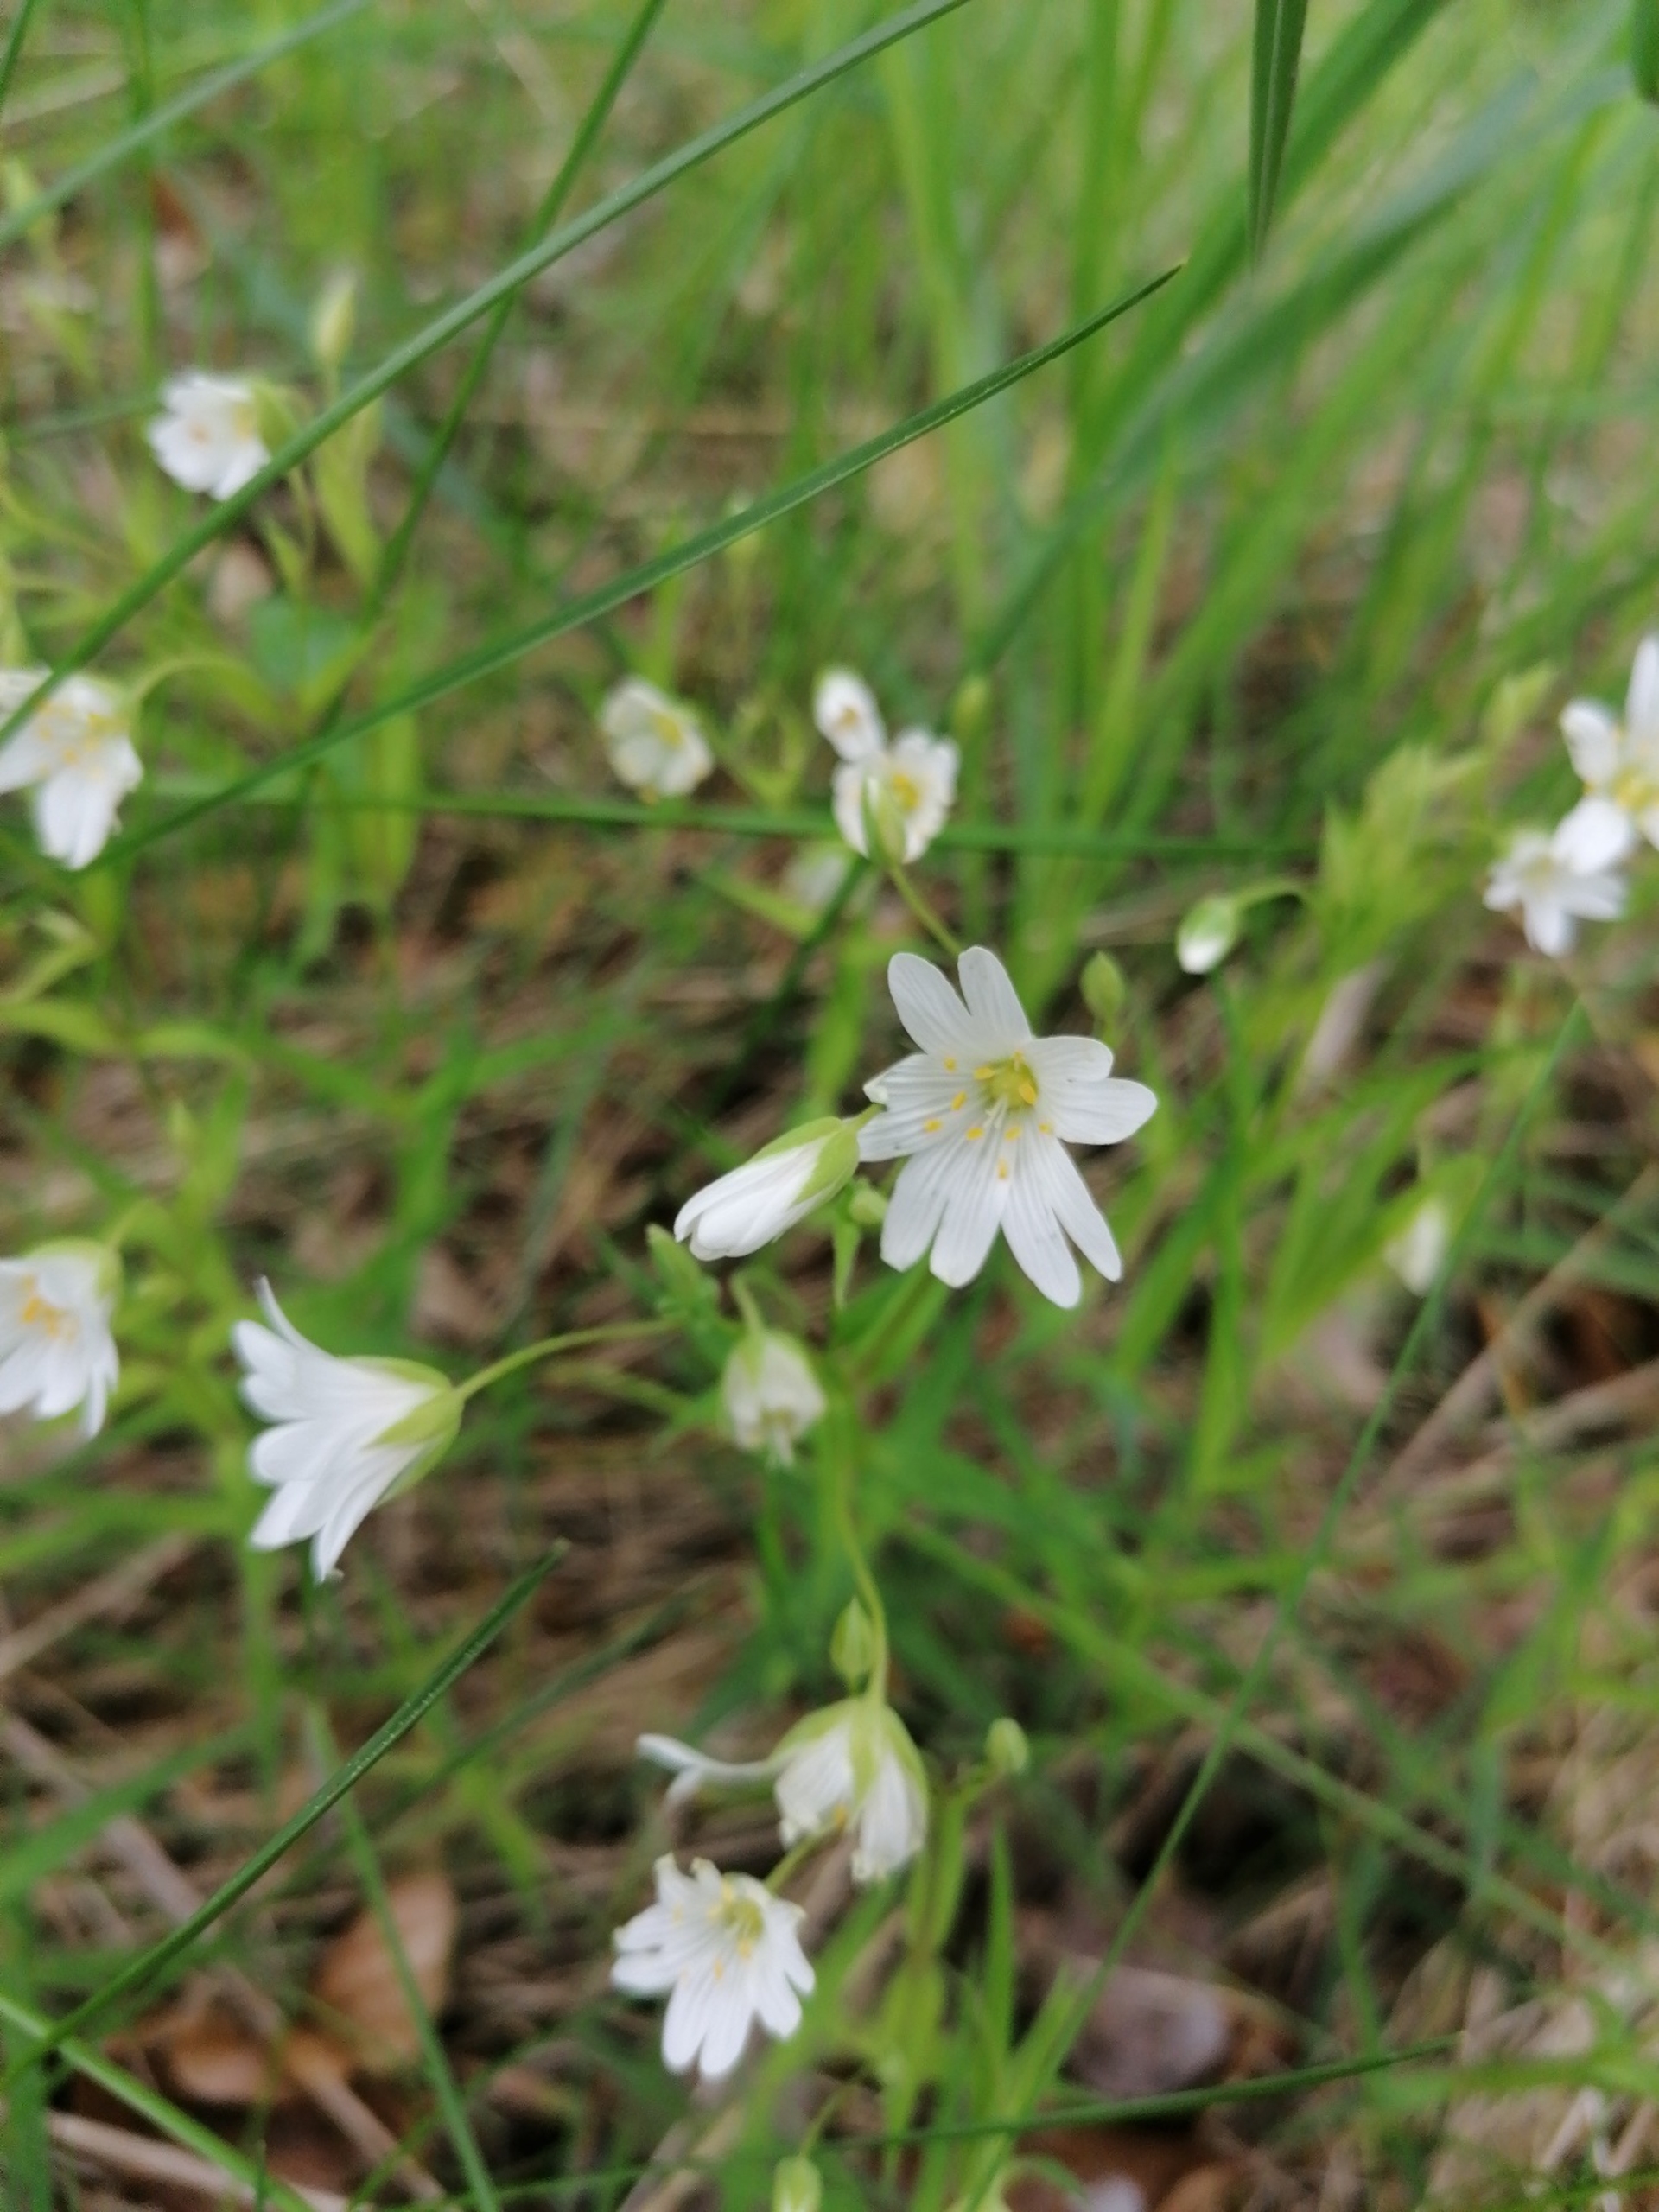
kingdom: Plantae
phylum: Tracheophyta
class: Magnoliopsida
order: Caryophyllales
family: Caryophyllaceae
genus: Rabelera
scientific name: Rabelera holostea
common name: Stor fladstjerne
